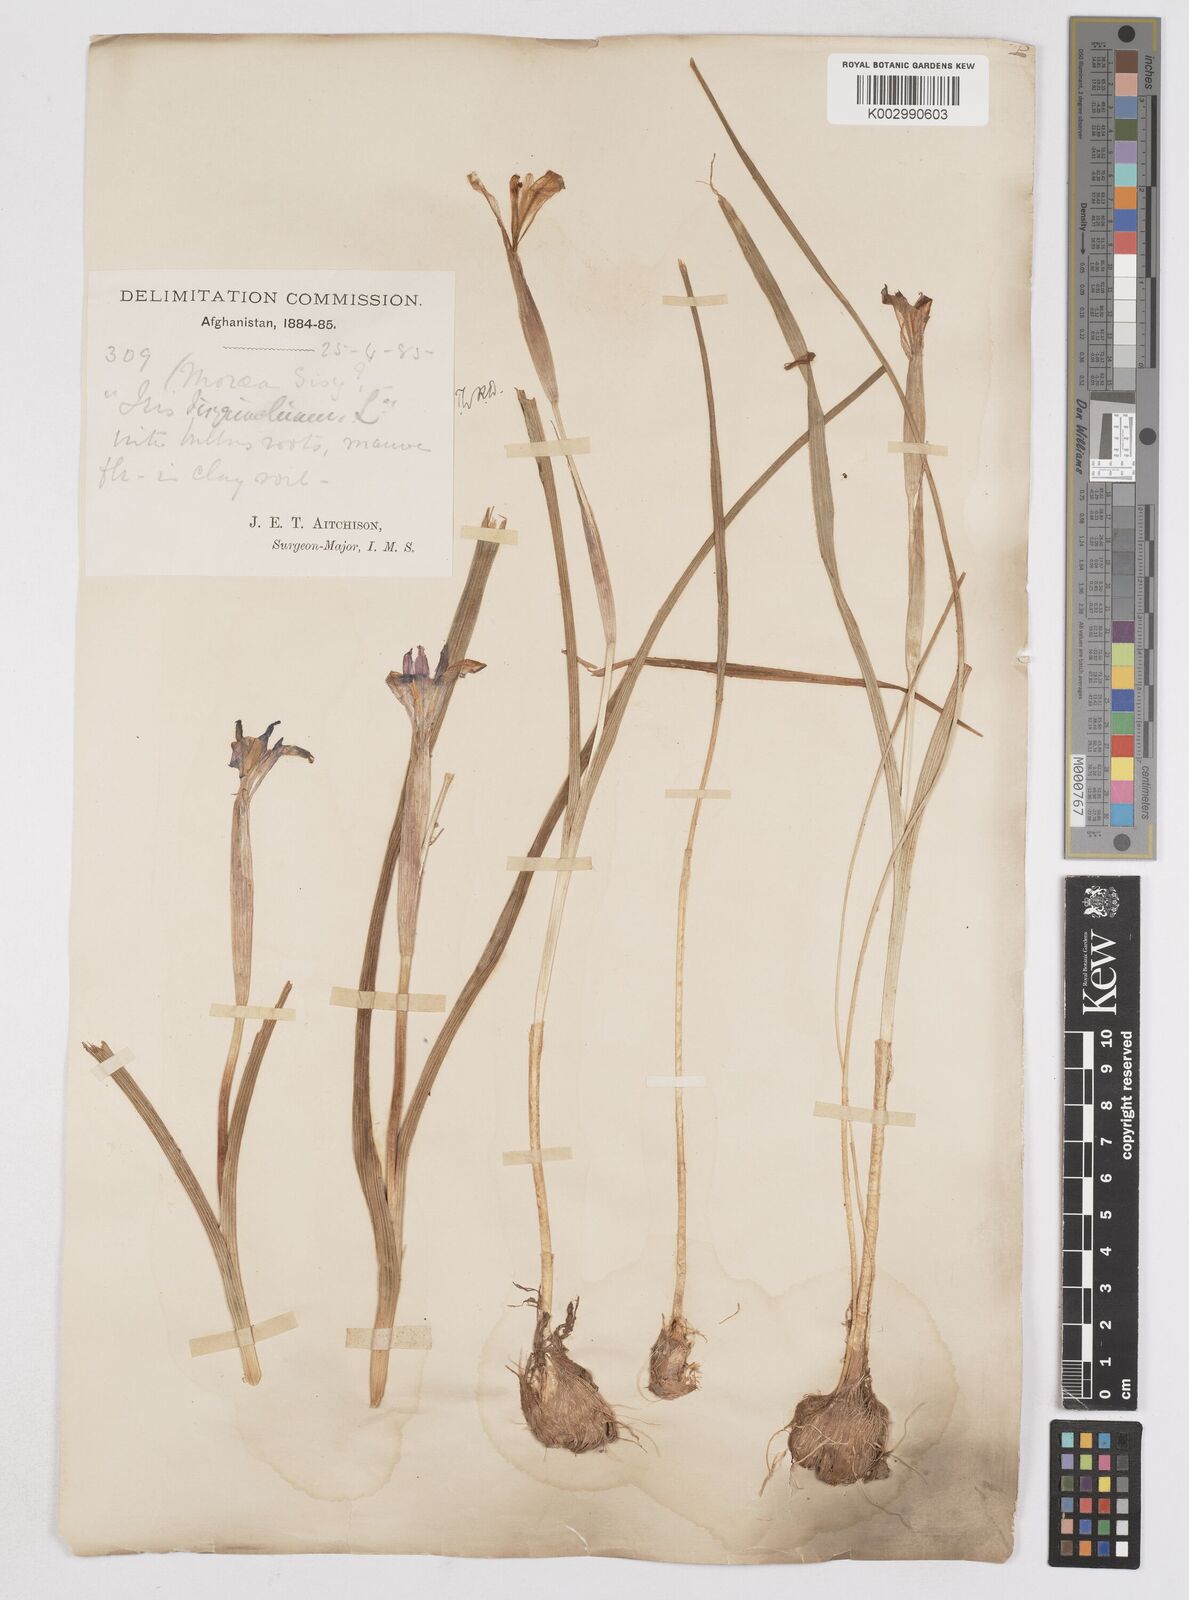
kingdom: Plantae
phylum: Tracheophyta
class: Liliopsida
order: Asparagales
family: Iridaceae
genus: Moraea
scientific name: Moraea sisyrinchium
